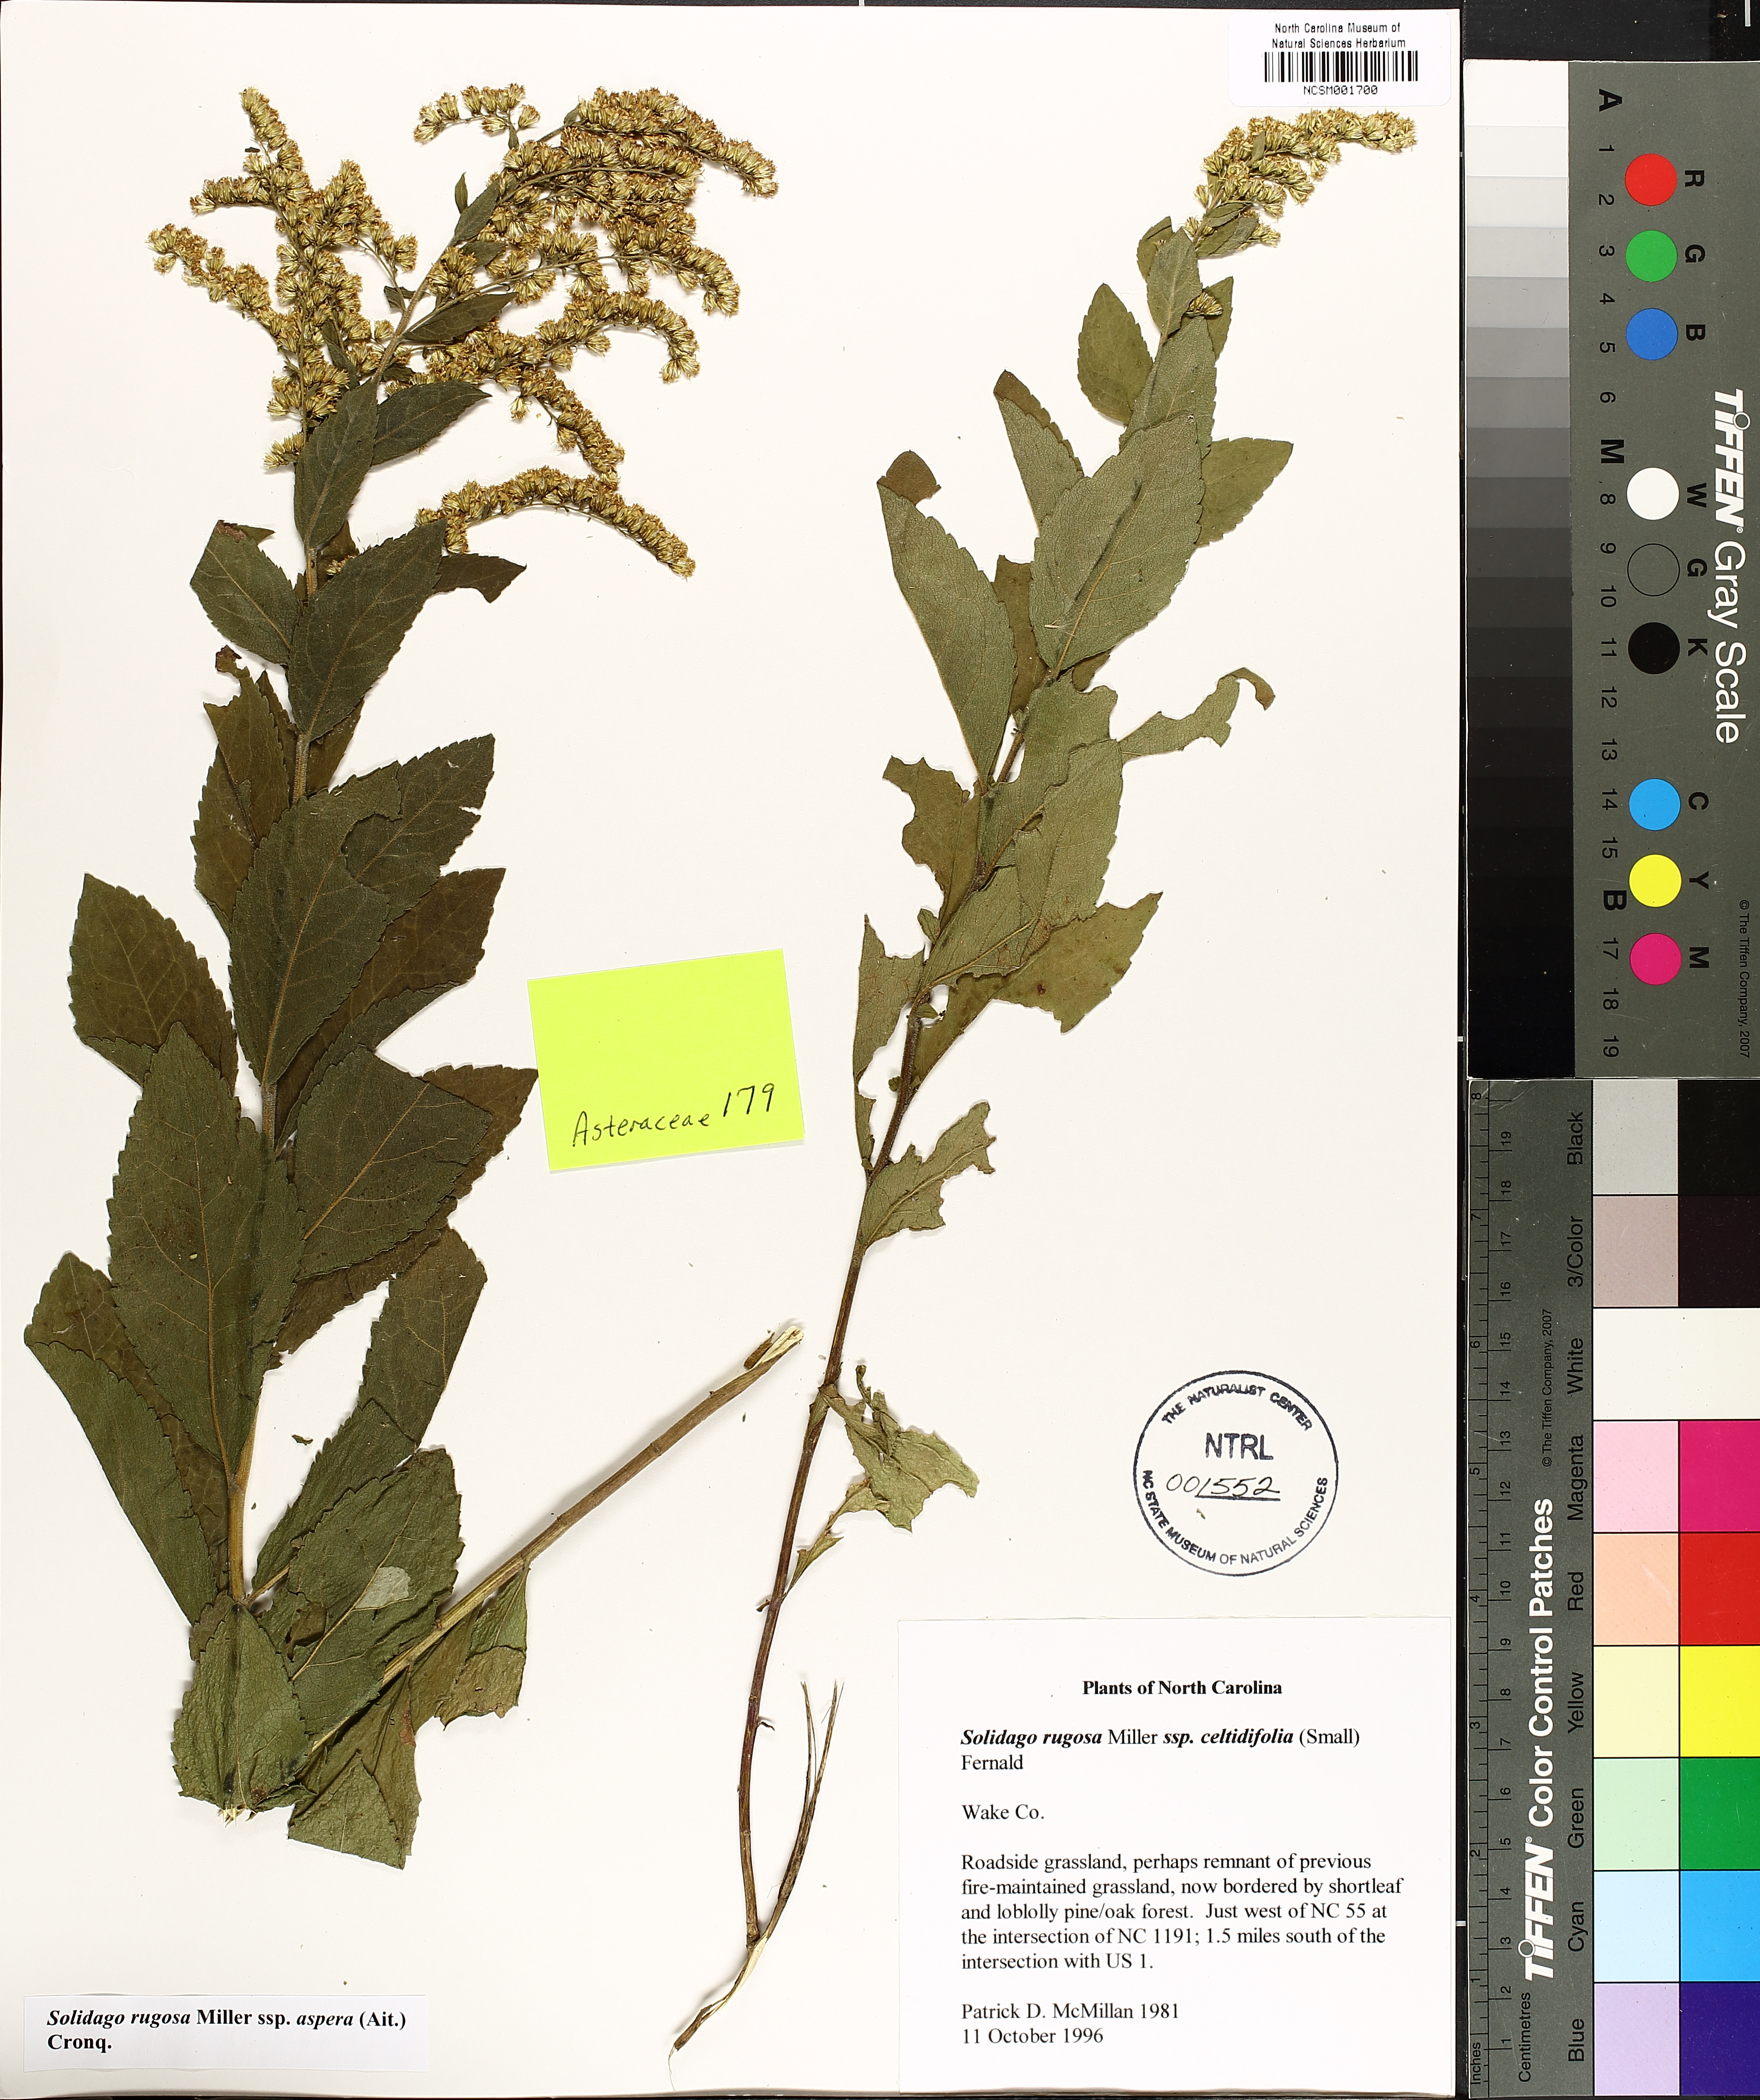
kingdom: Plantae
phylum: Tracheophyta
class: Magnoliopsida
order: Asterales
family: Asteraceae
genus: Solidago
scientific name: Solidago rugosa
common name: Rough-stemmed goldenrod
